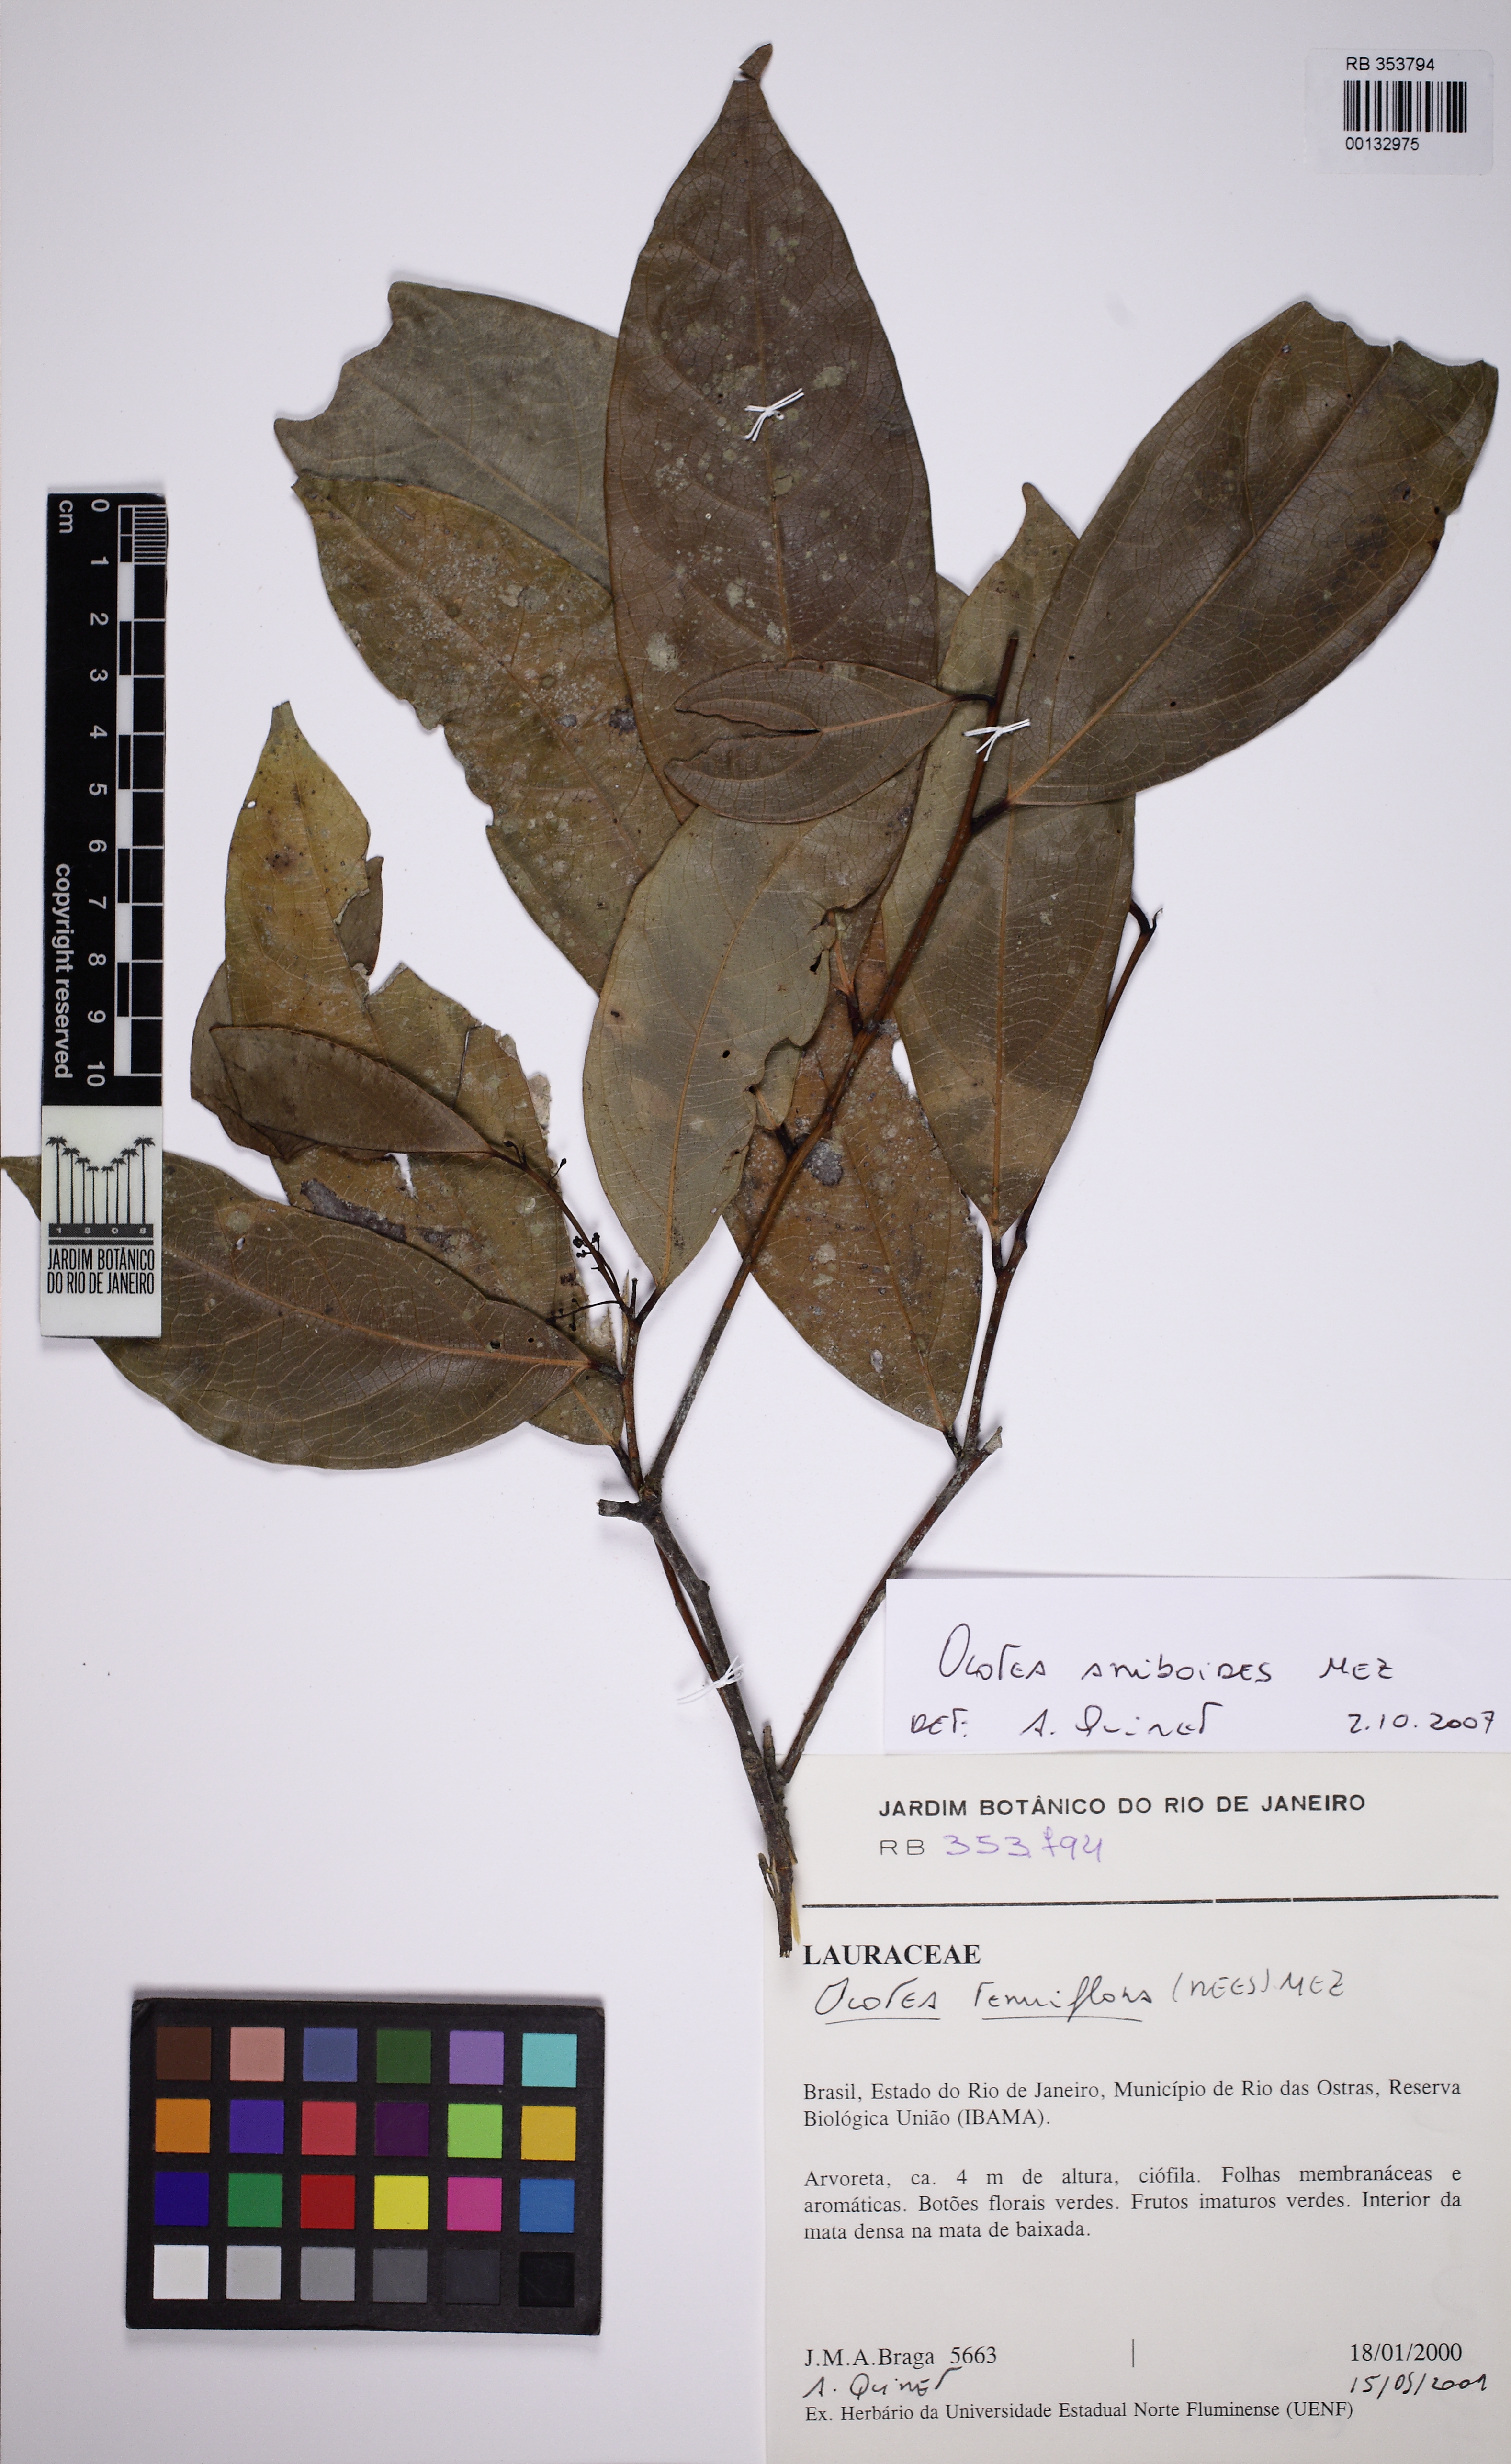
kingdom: Plantae
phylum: Tracheophyta
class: Magnoliopsida
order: Laurales
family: Lauraceae
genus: Ocotea
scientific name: Ocotea aniboides
